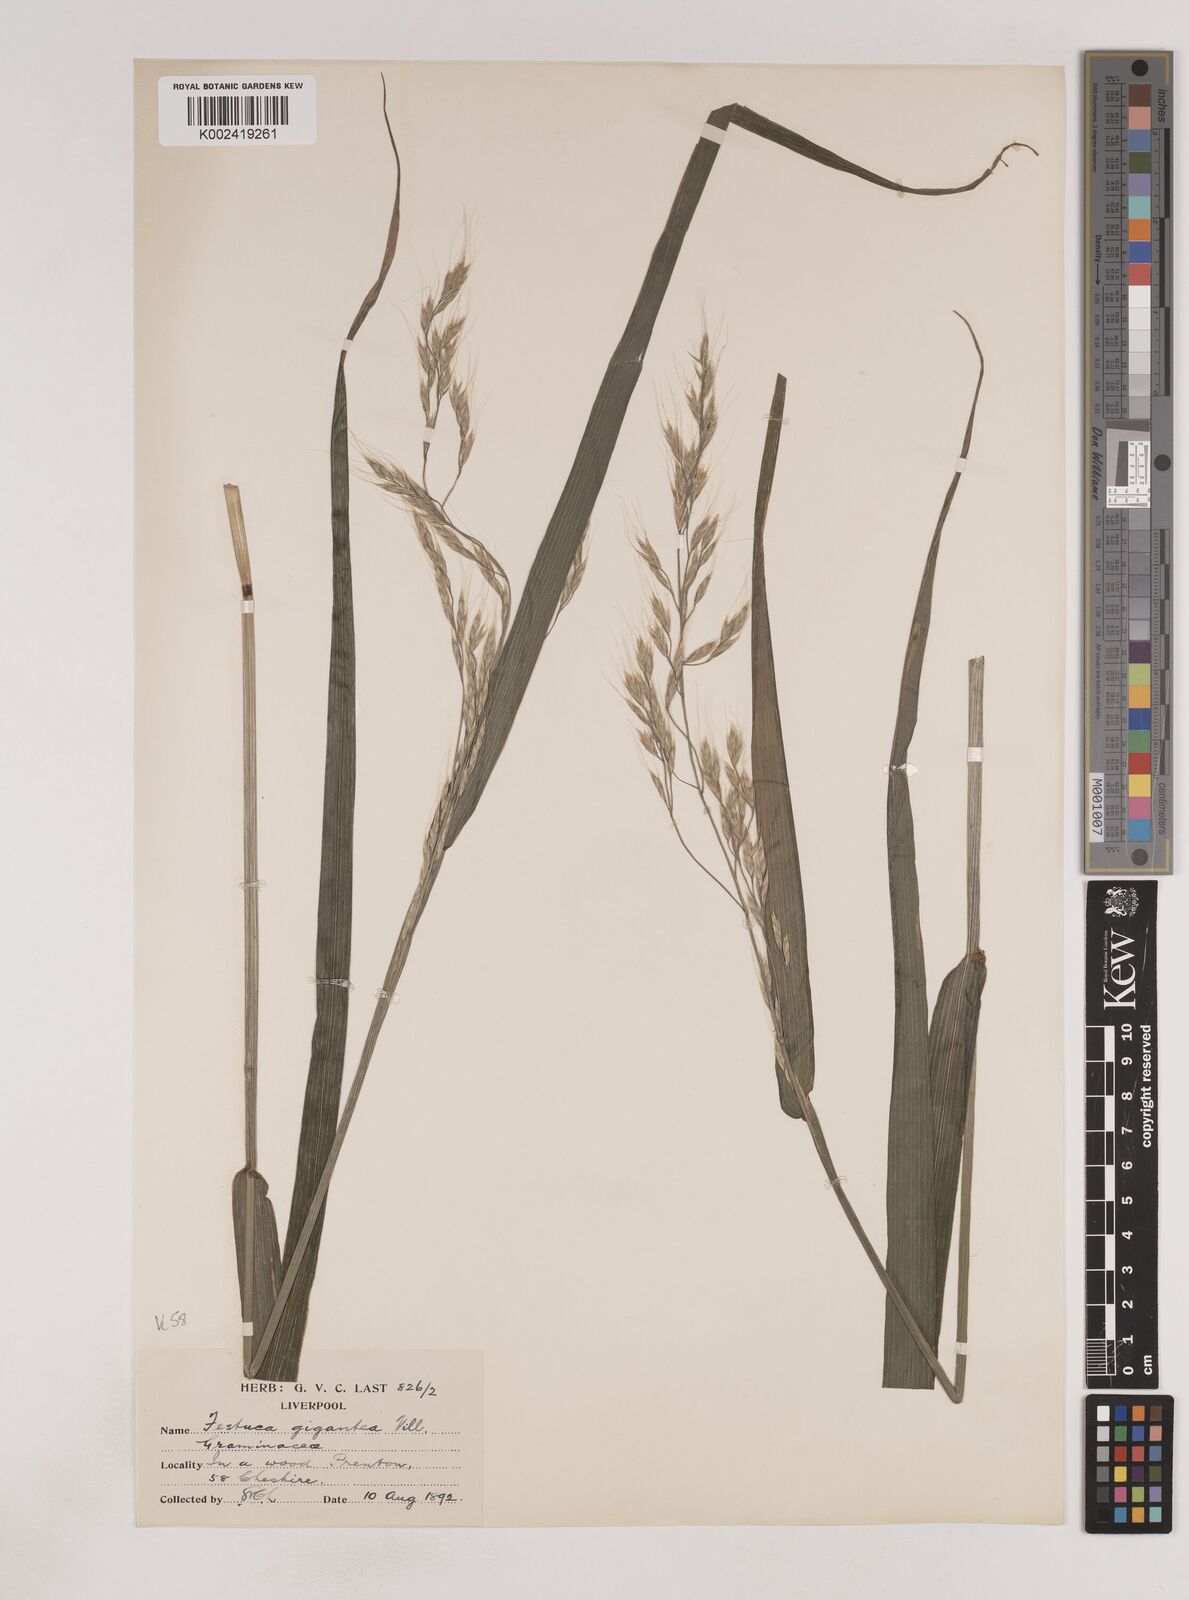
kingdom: Plantae
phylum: Tracheophyta
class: Liliopsida
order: Poales
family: Poaceae
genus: Lolium
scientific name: Lolium giganteum
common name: Giant fescue
